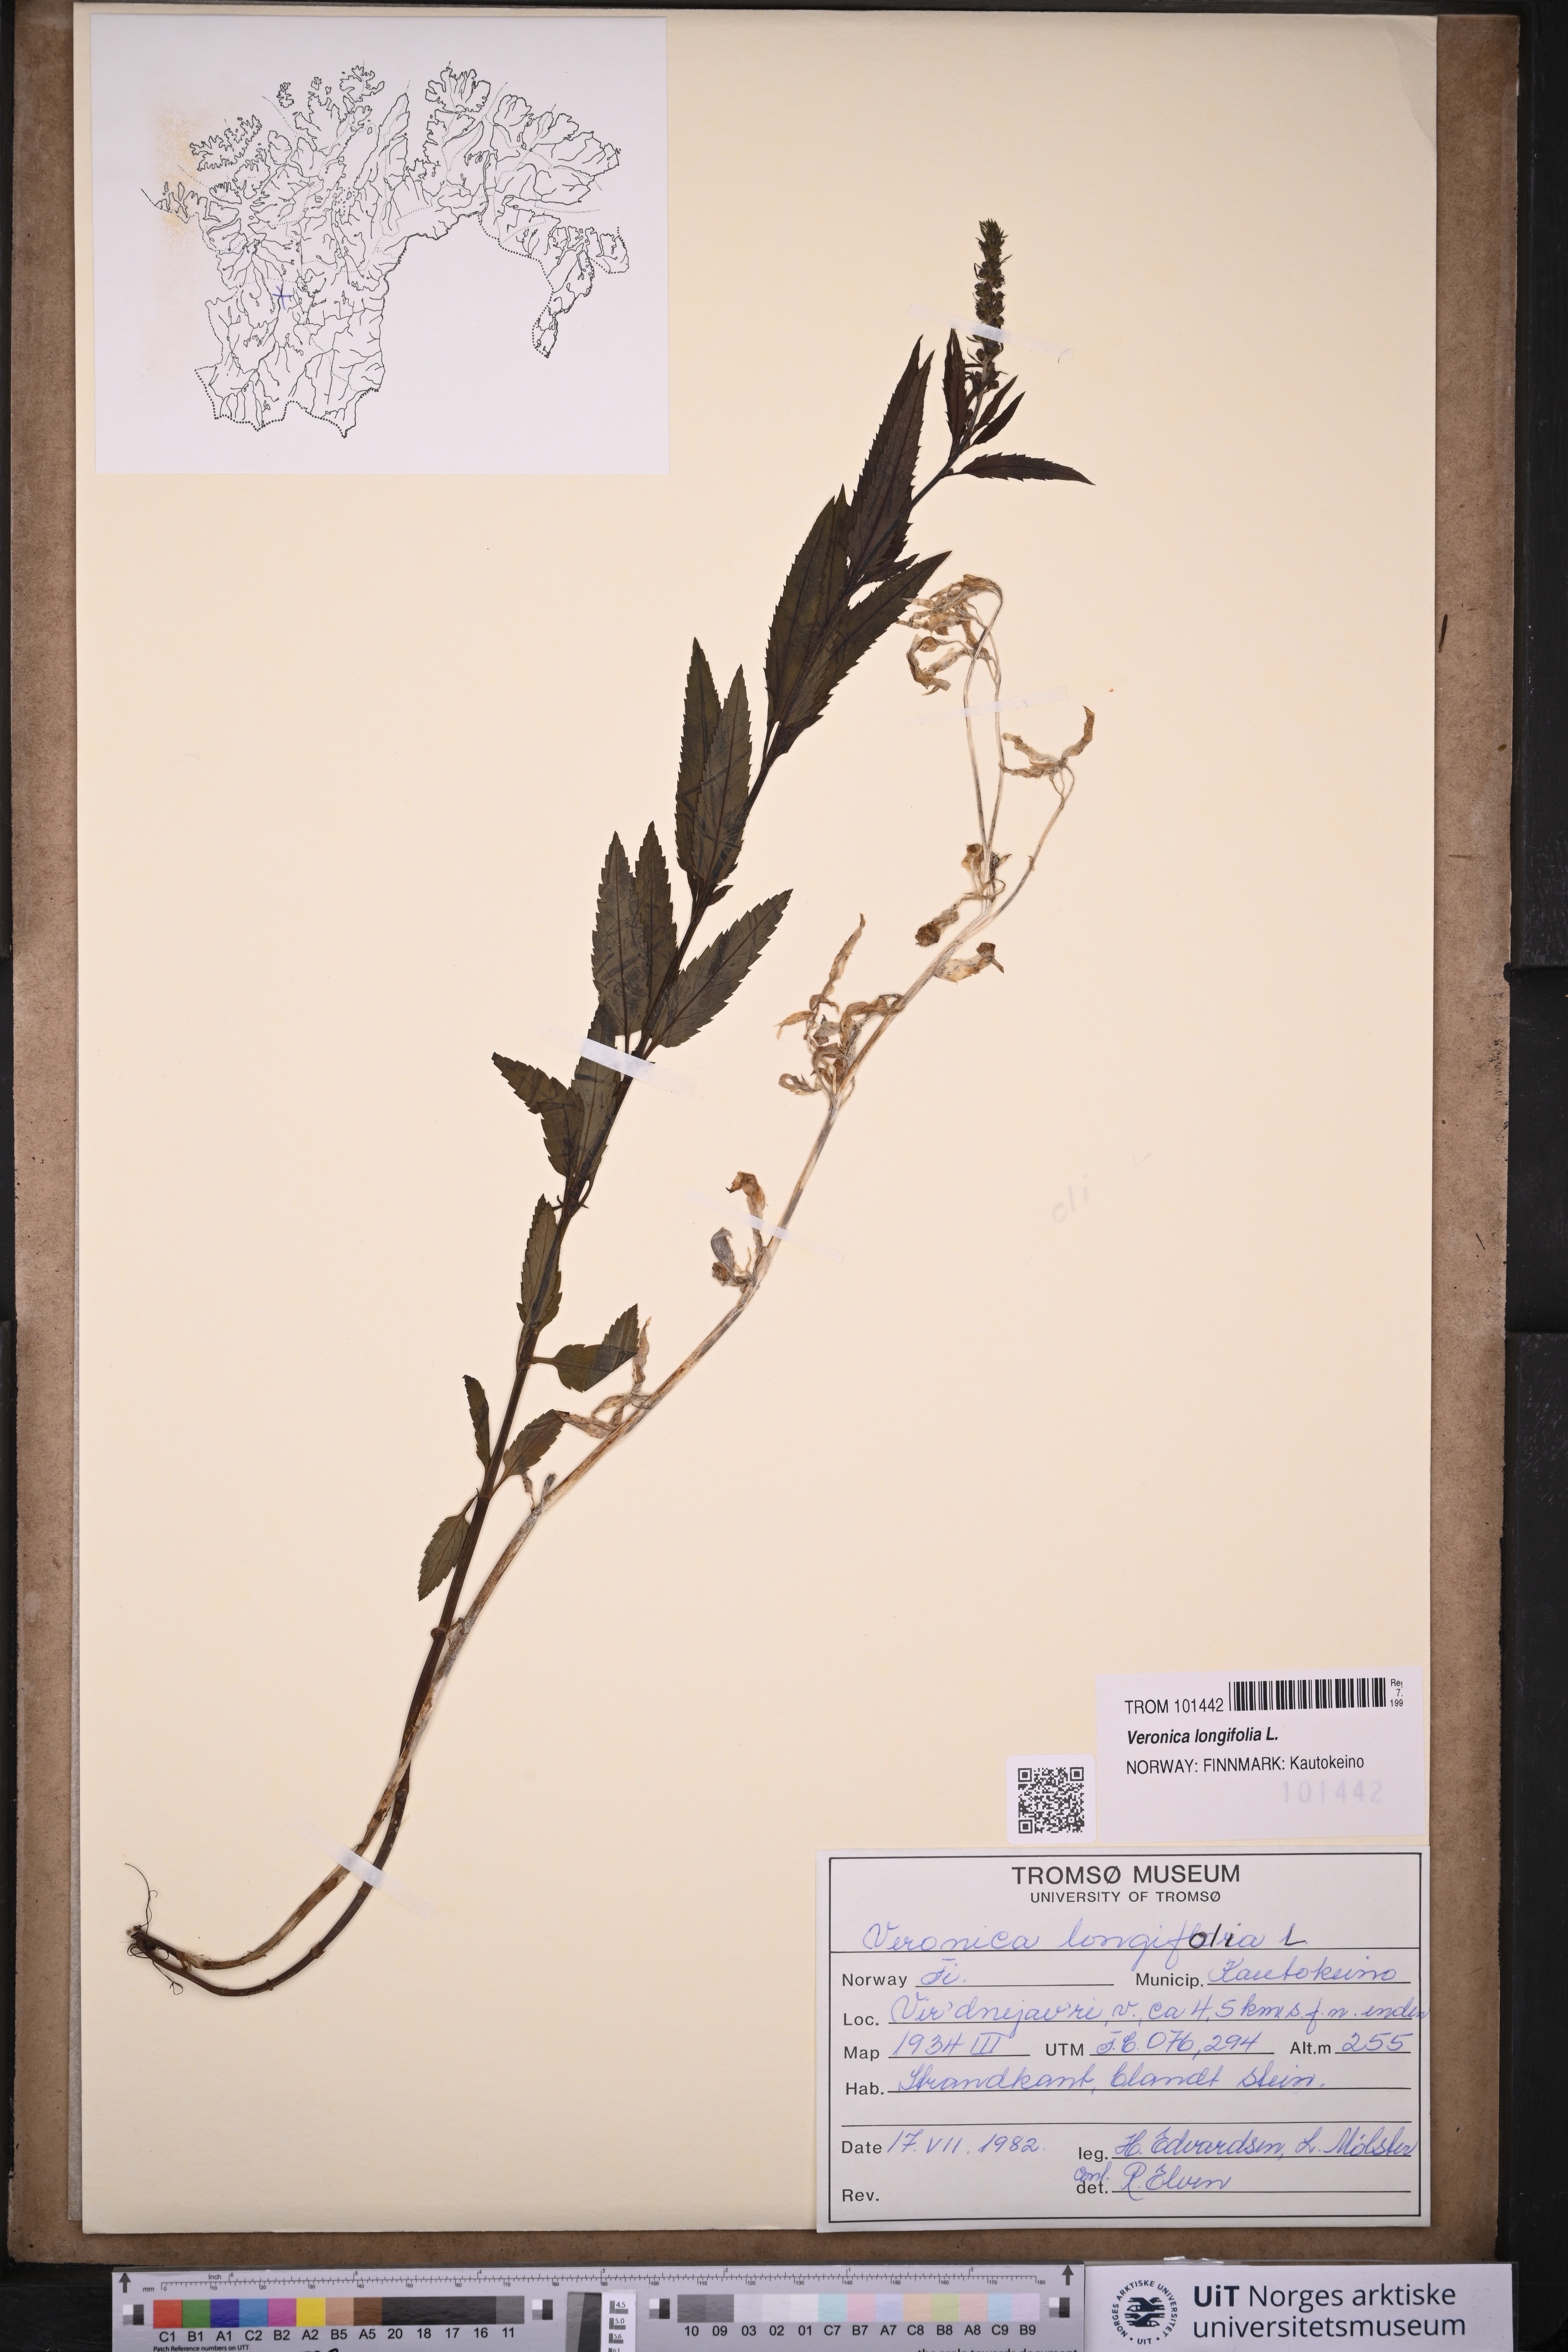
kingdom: Plantae
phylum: Tracheophyta
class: Magnoliopsida
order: Lamiales
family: Plantaginaceae
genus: Veronica
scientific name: Veronica longifolia
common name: Garden speedwell
